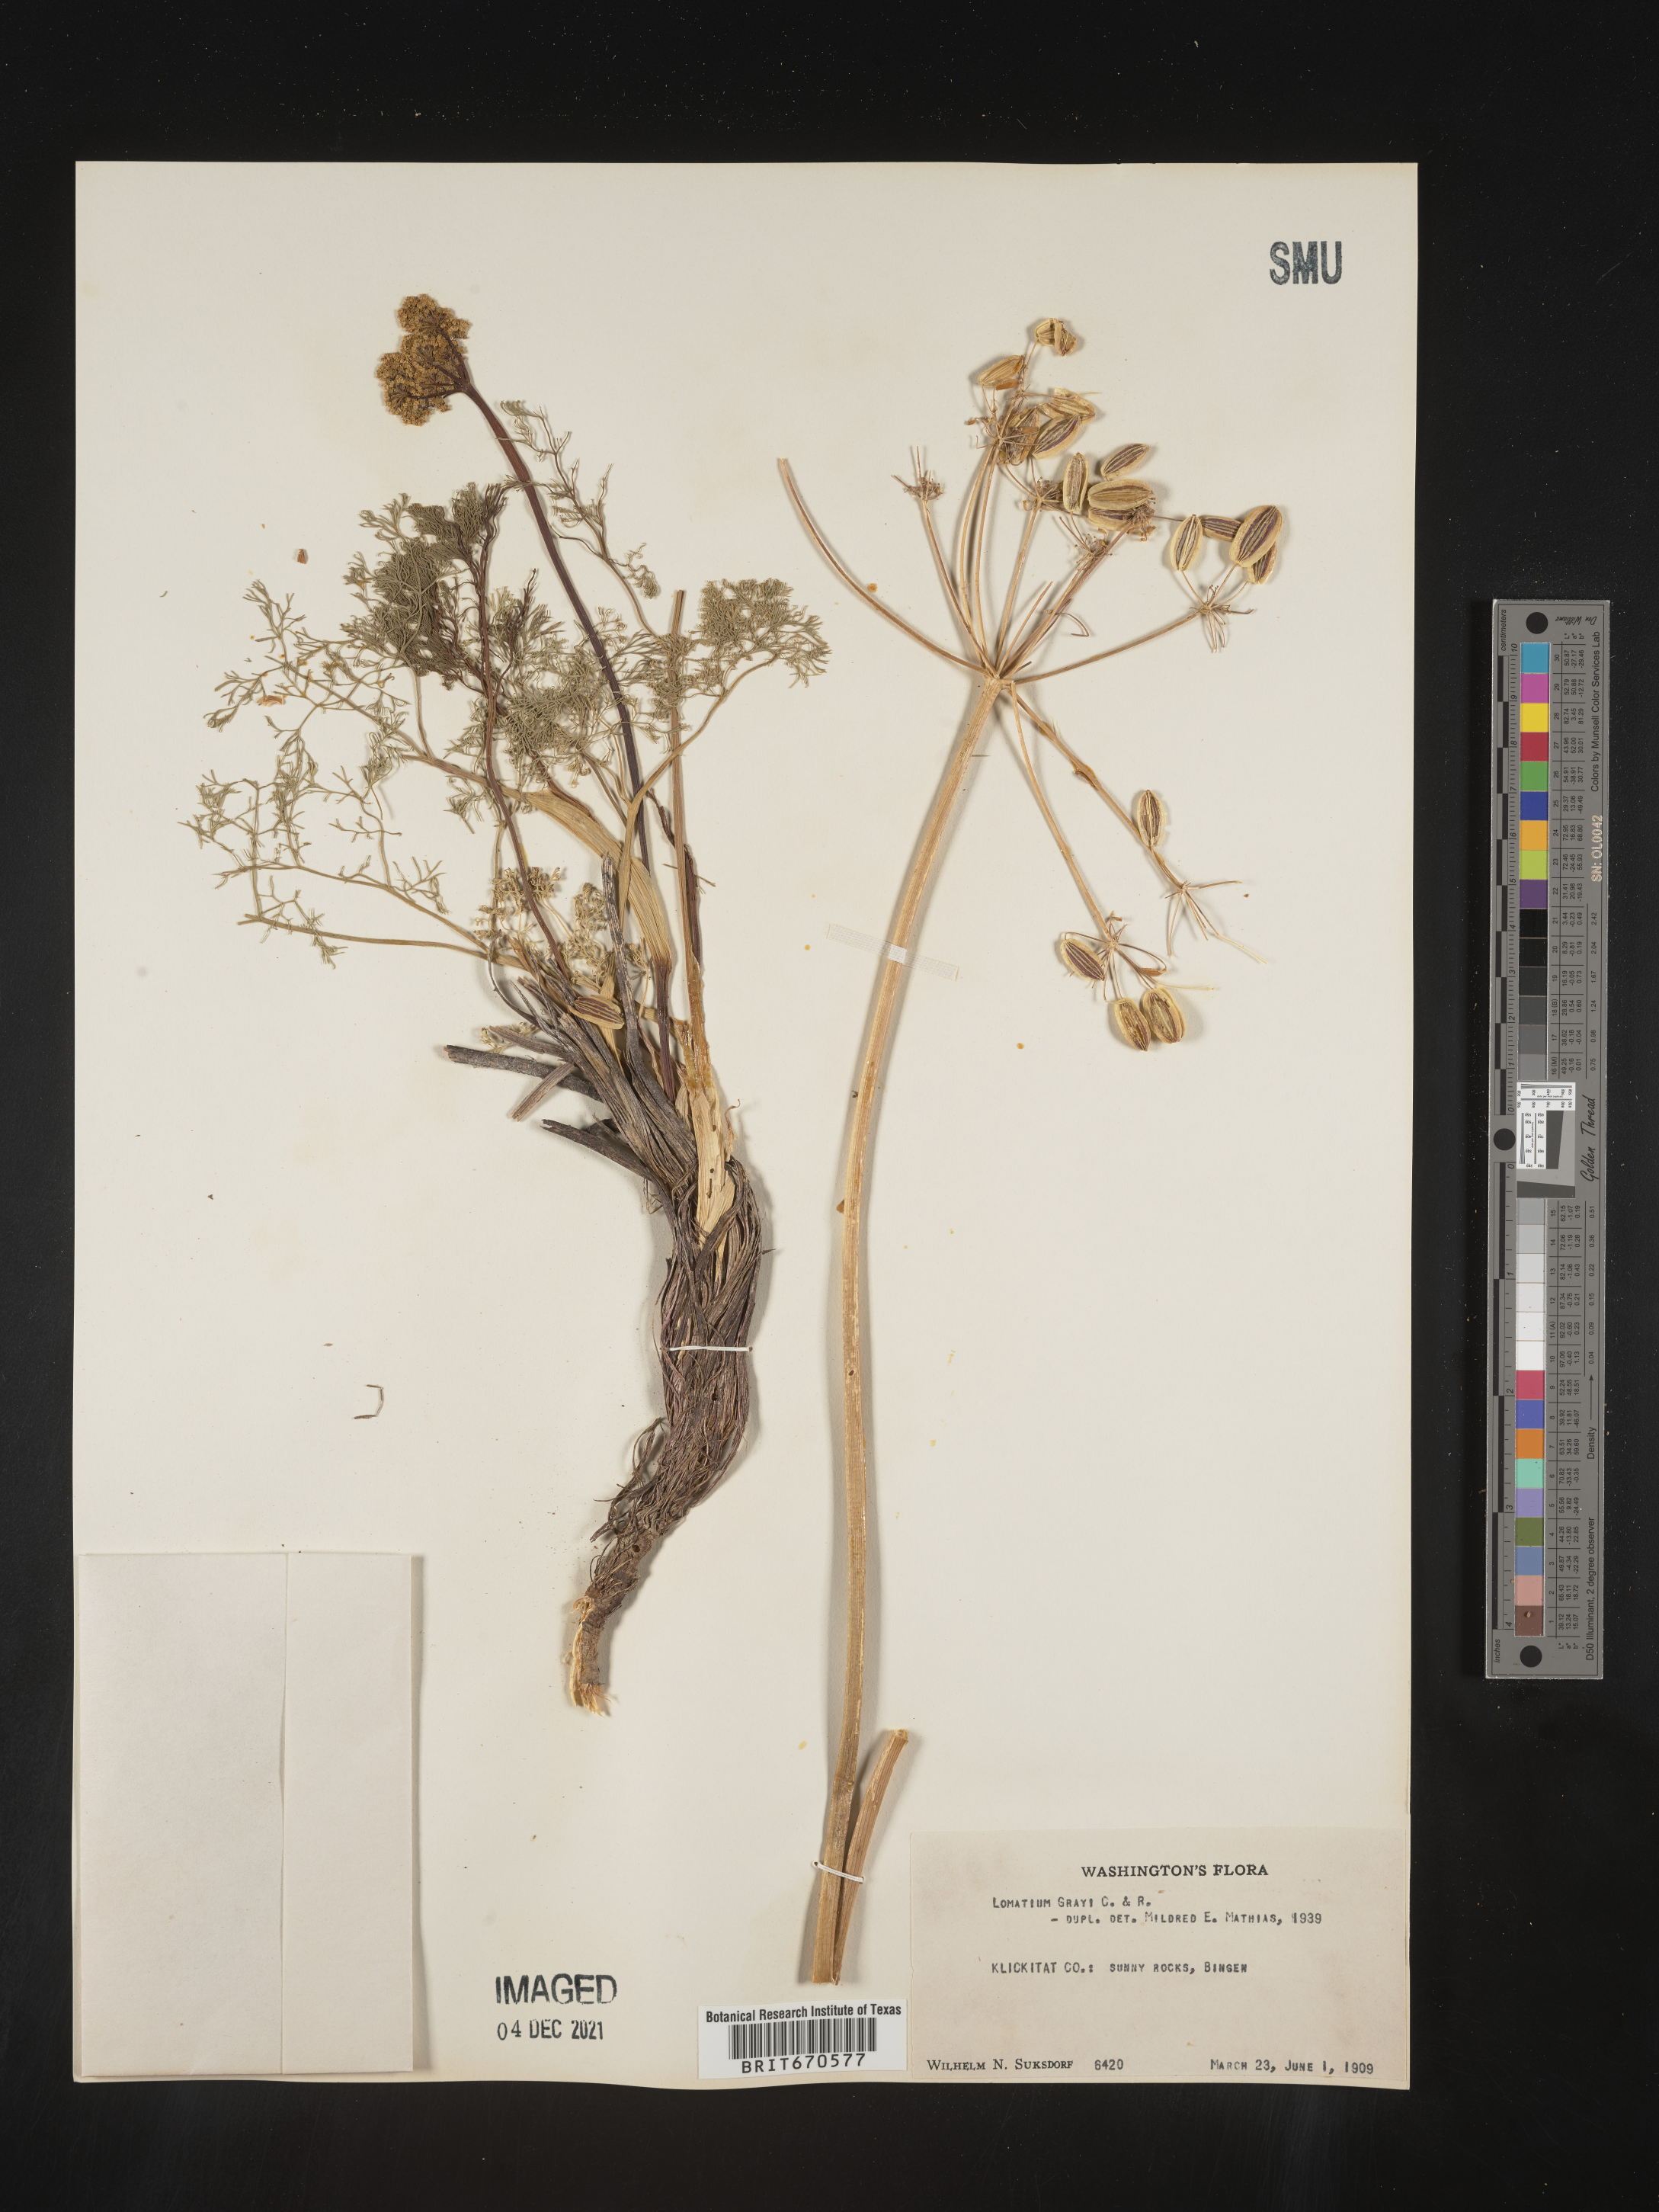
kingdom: Plantae
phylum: Tracheophyta
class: Magnoliopsida
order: Apiales
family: Apiaceae
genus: Lomatium
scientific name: Lomatium grayi
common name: Milfoil lomatium
